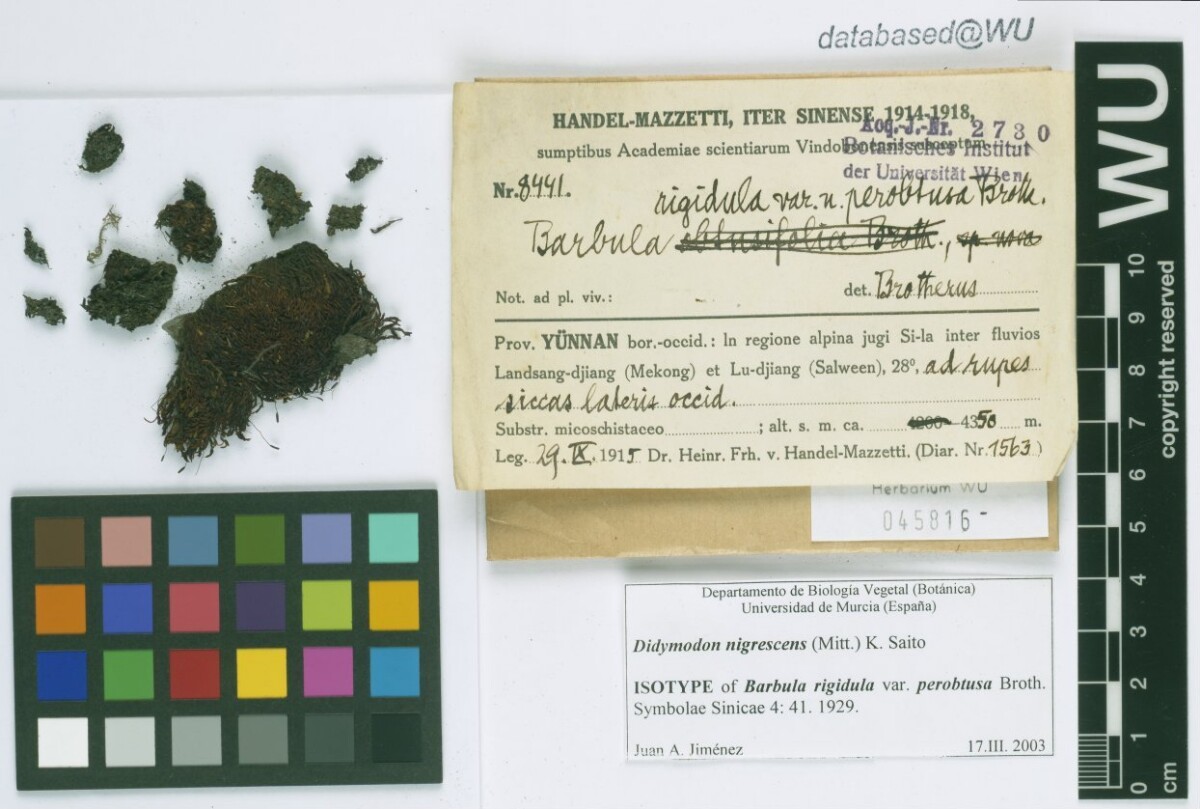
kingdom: Plantae
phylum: Bryophyta
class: Bryopsida
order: Pottiales
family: Pottiaceae
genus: Didymodon
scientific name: Didymodon nigrescens
